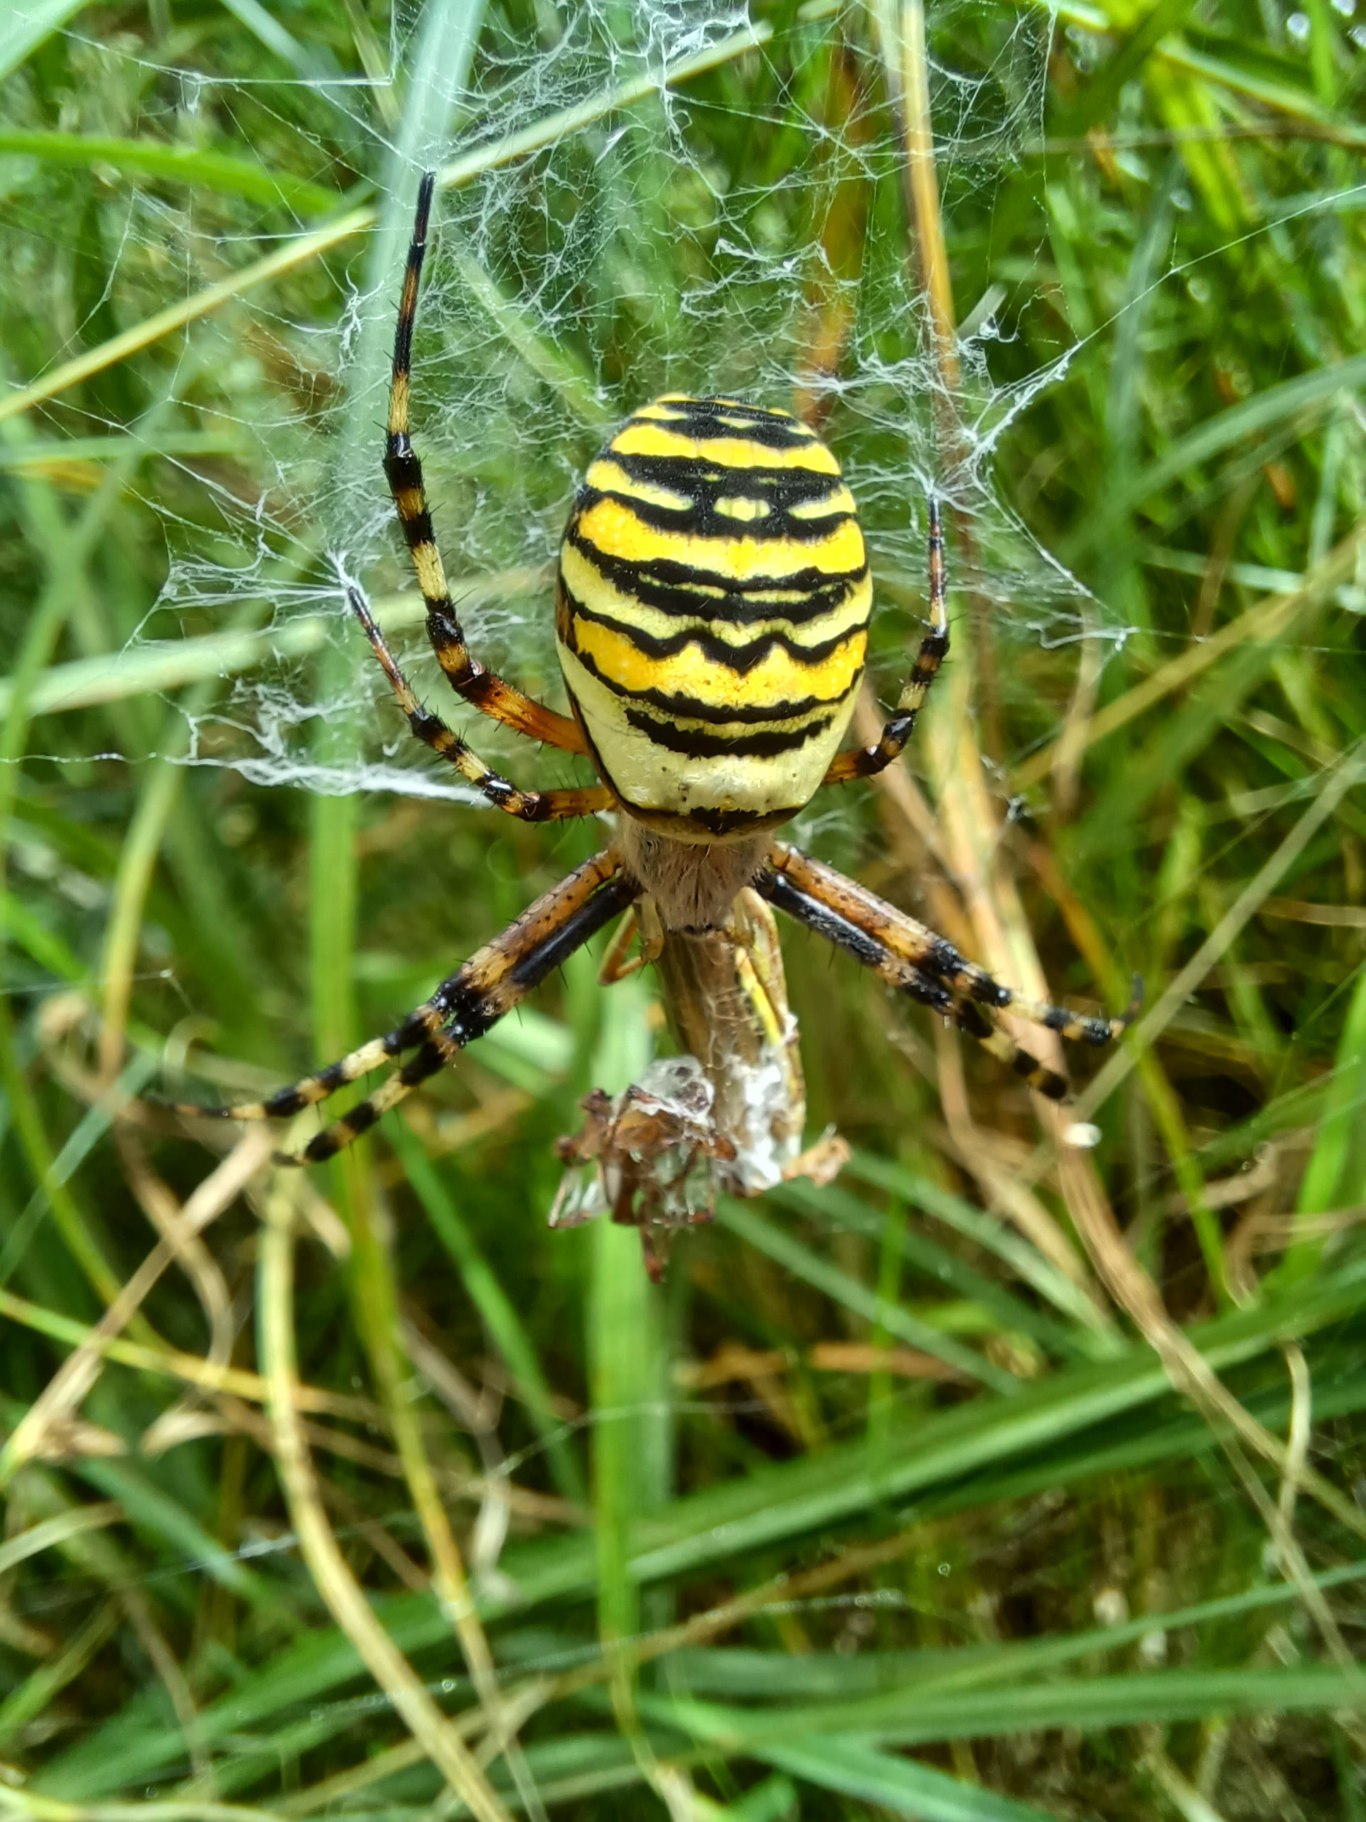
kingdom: Animalia
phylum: Arthropoda
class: Arachnida
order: Araneae
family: Araneidae
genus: Argiope
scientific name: Argiope bruennichi
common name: Hvepseedderkop
